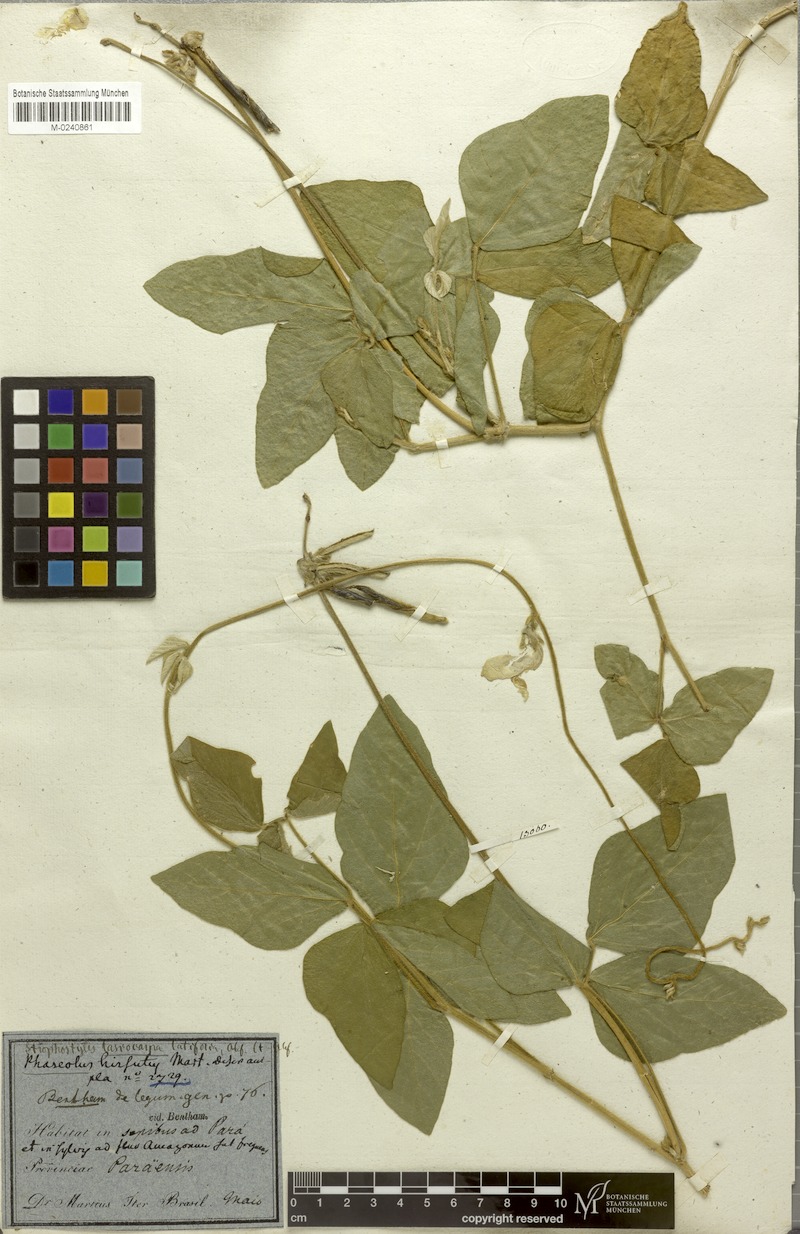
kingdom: Plantae
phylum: Tracheophyta
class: Magnoliopsida
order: Fabales
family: Fabaceae
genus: Vigna
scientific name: Vigna lasiocarpa
